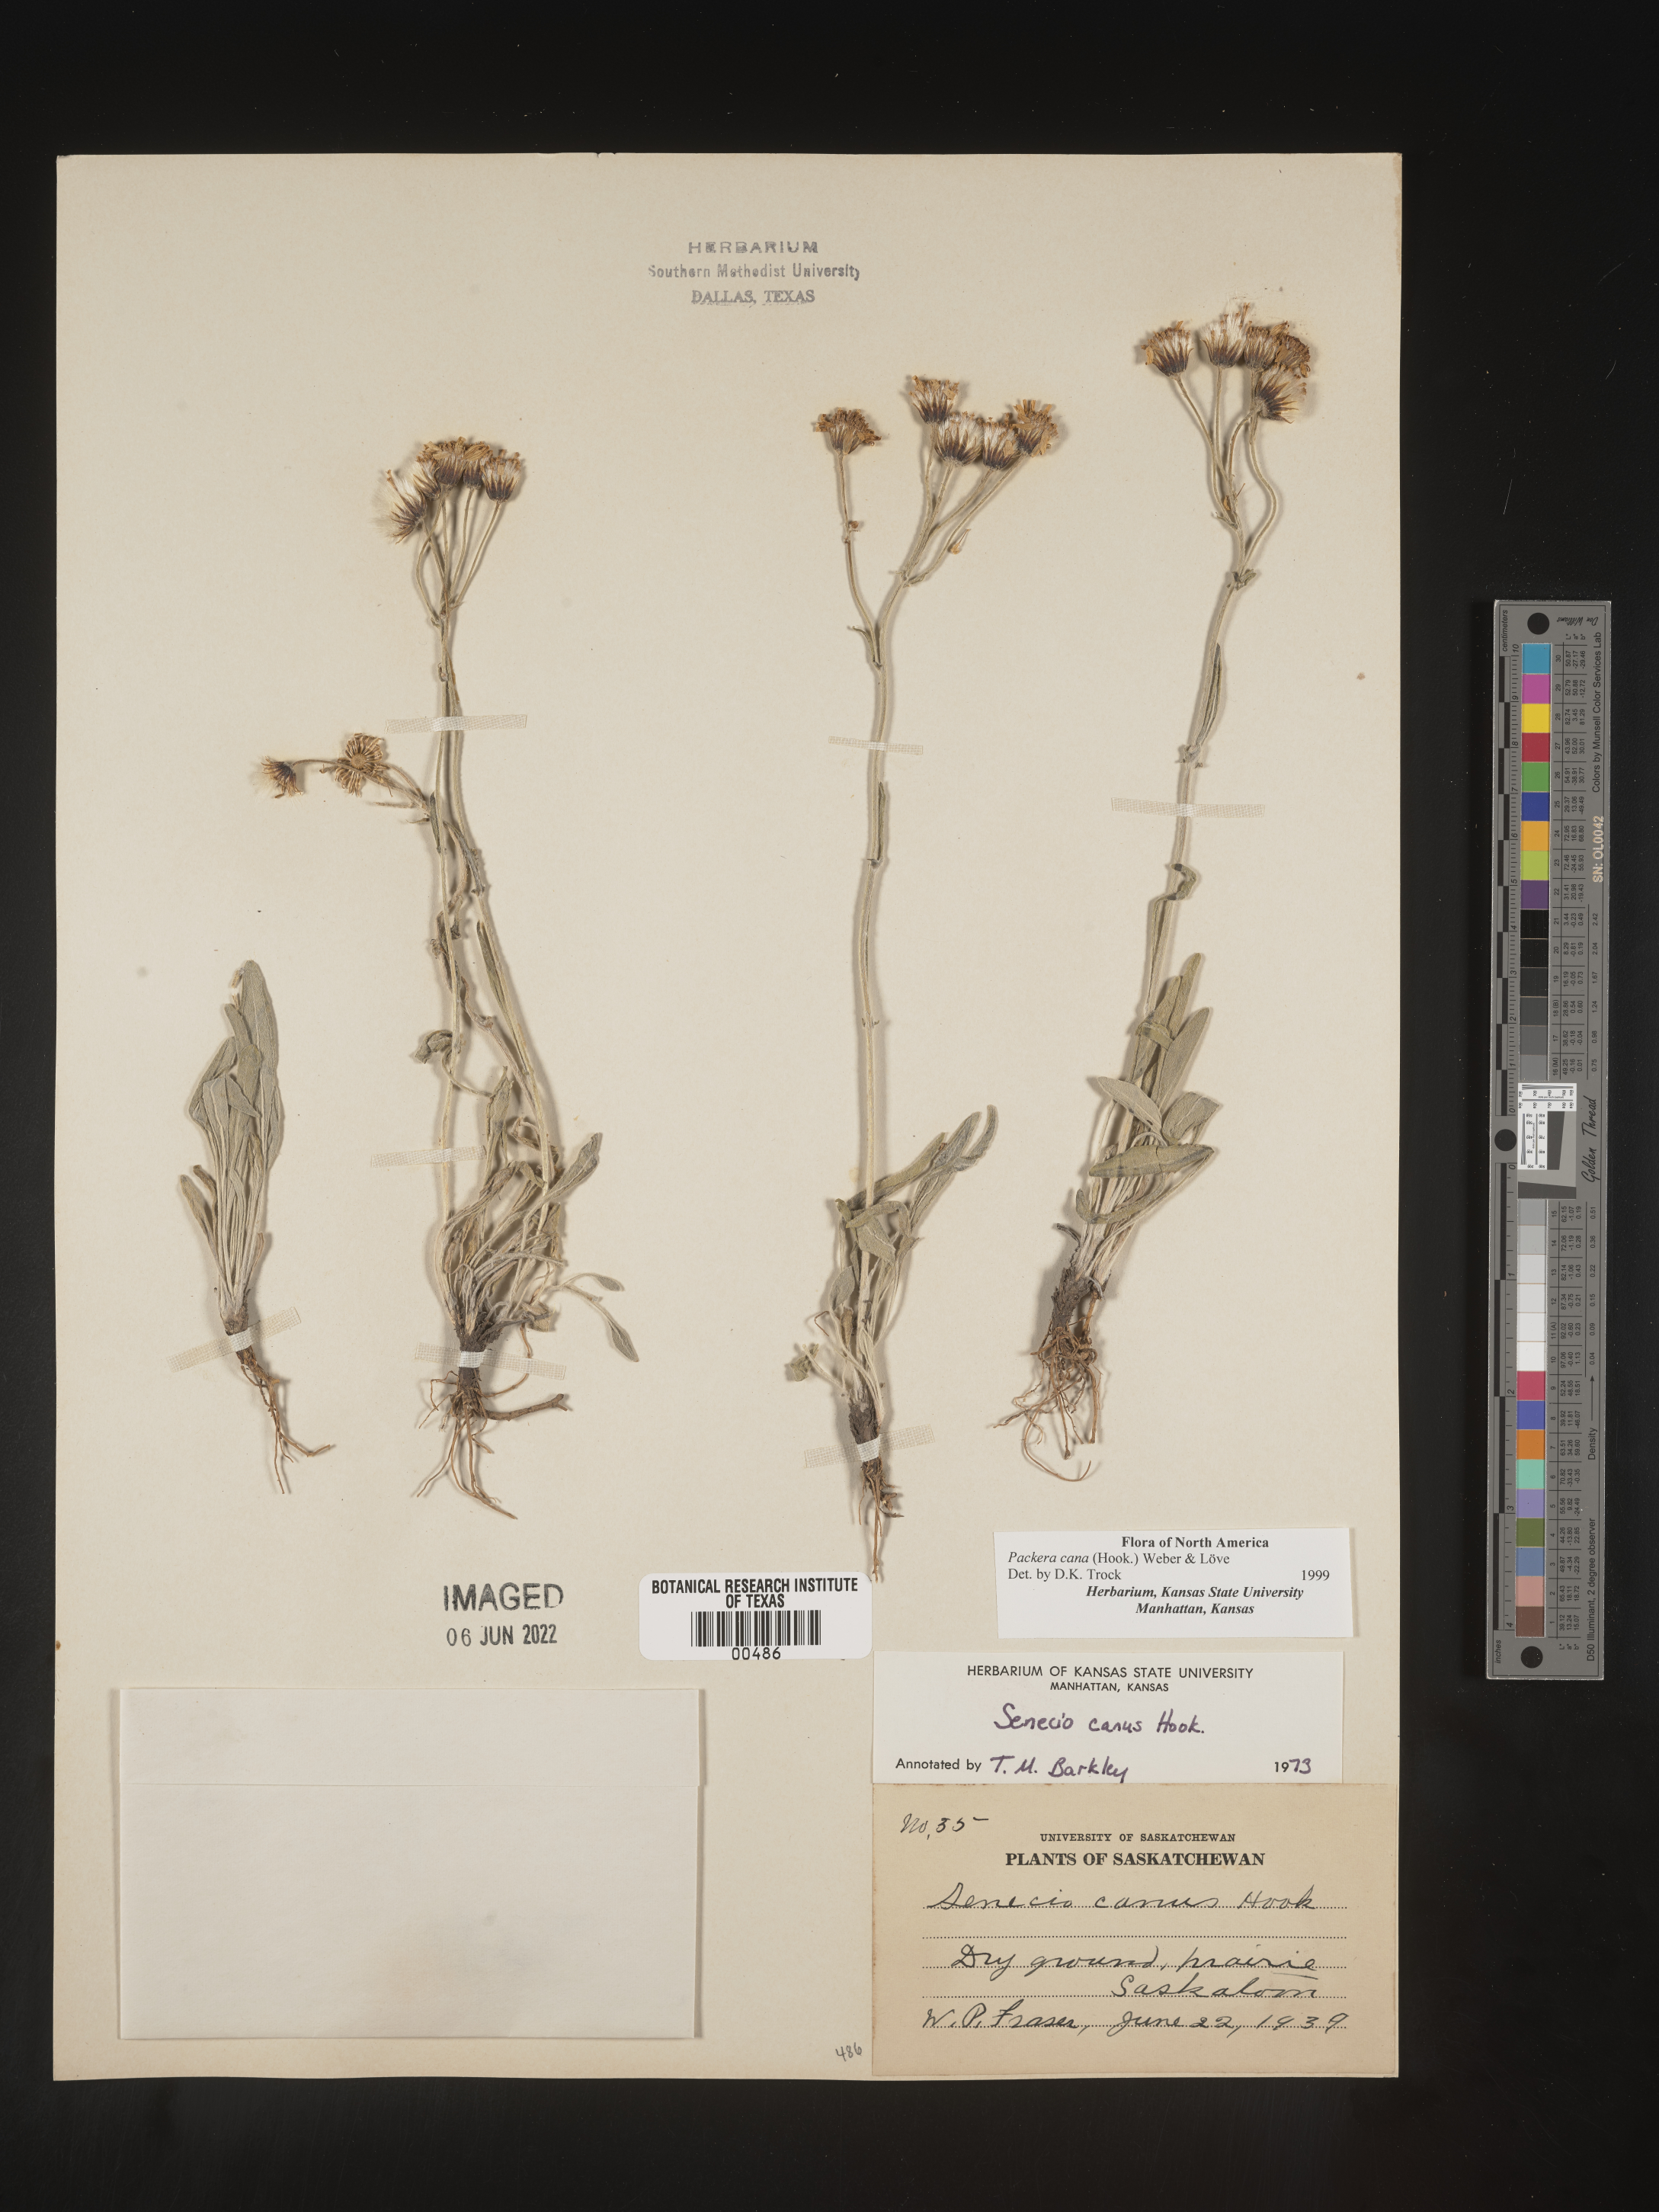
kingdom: Plantae
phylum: Tracheophyta
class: Magnoliopsida
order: Asterales
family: Asteraceae
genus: Packera
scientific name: Packera cana
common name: Woolly groundsel
